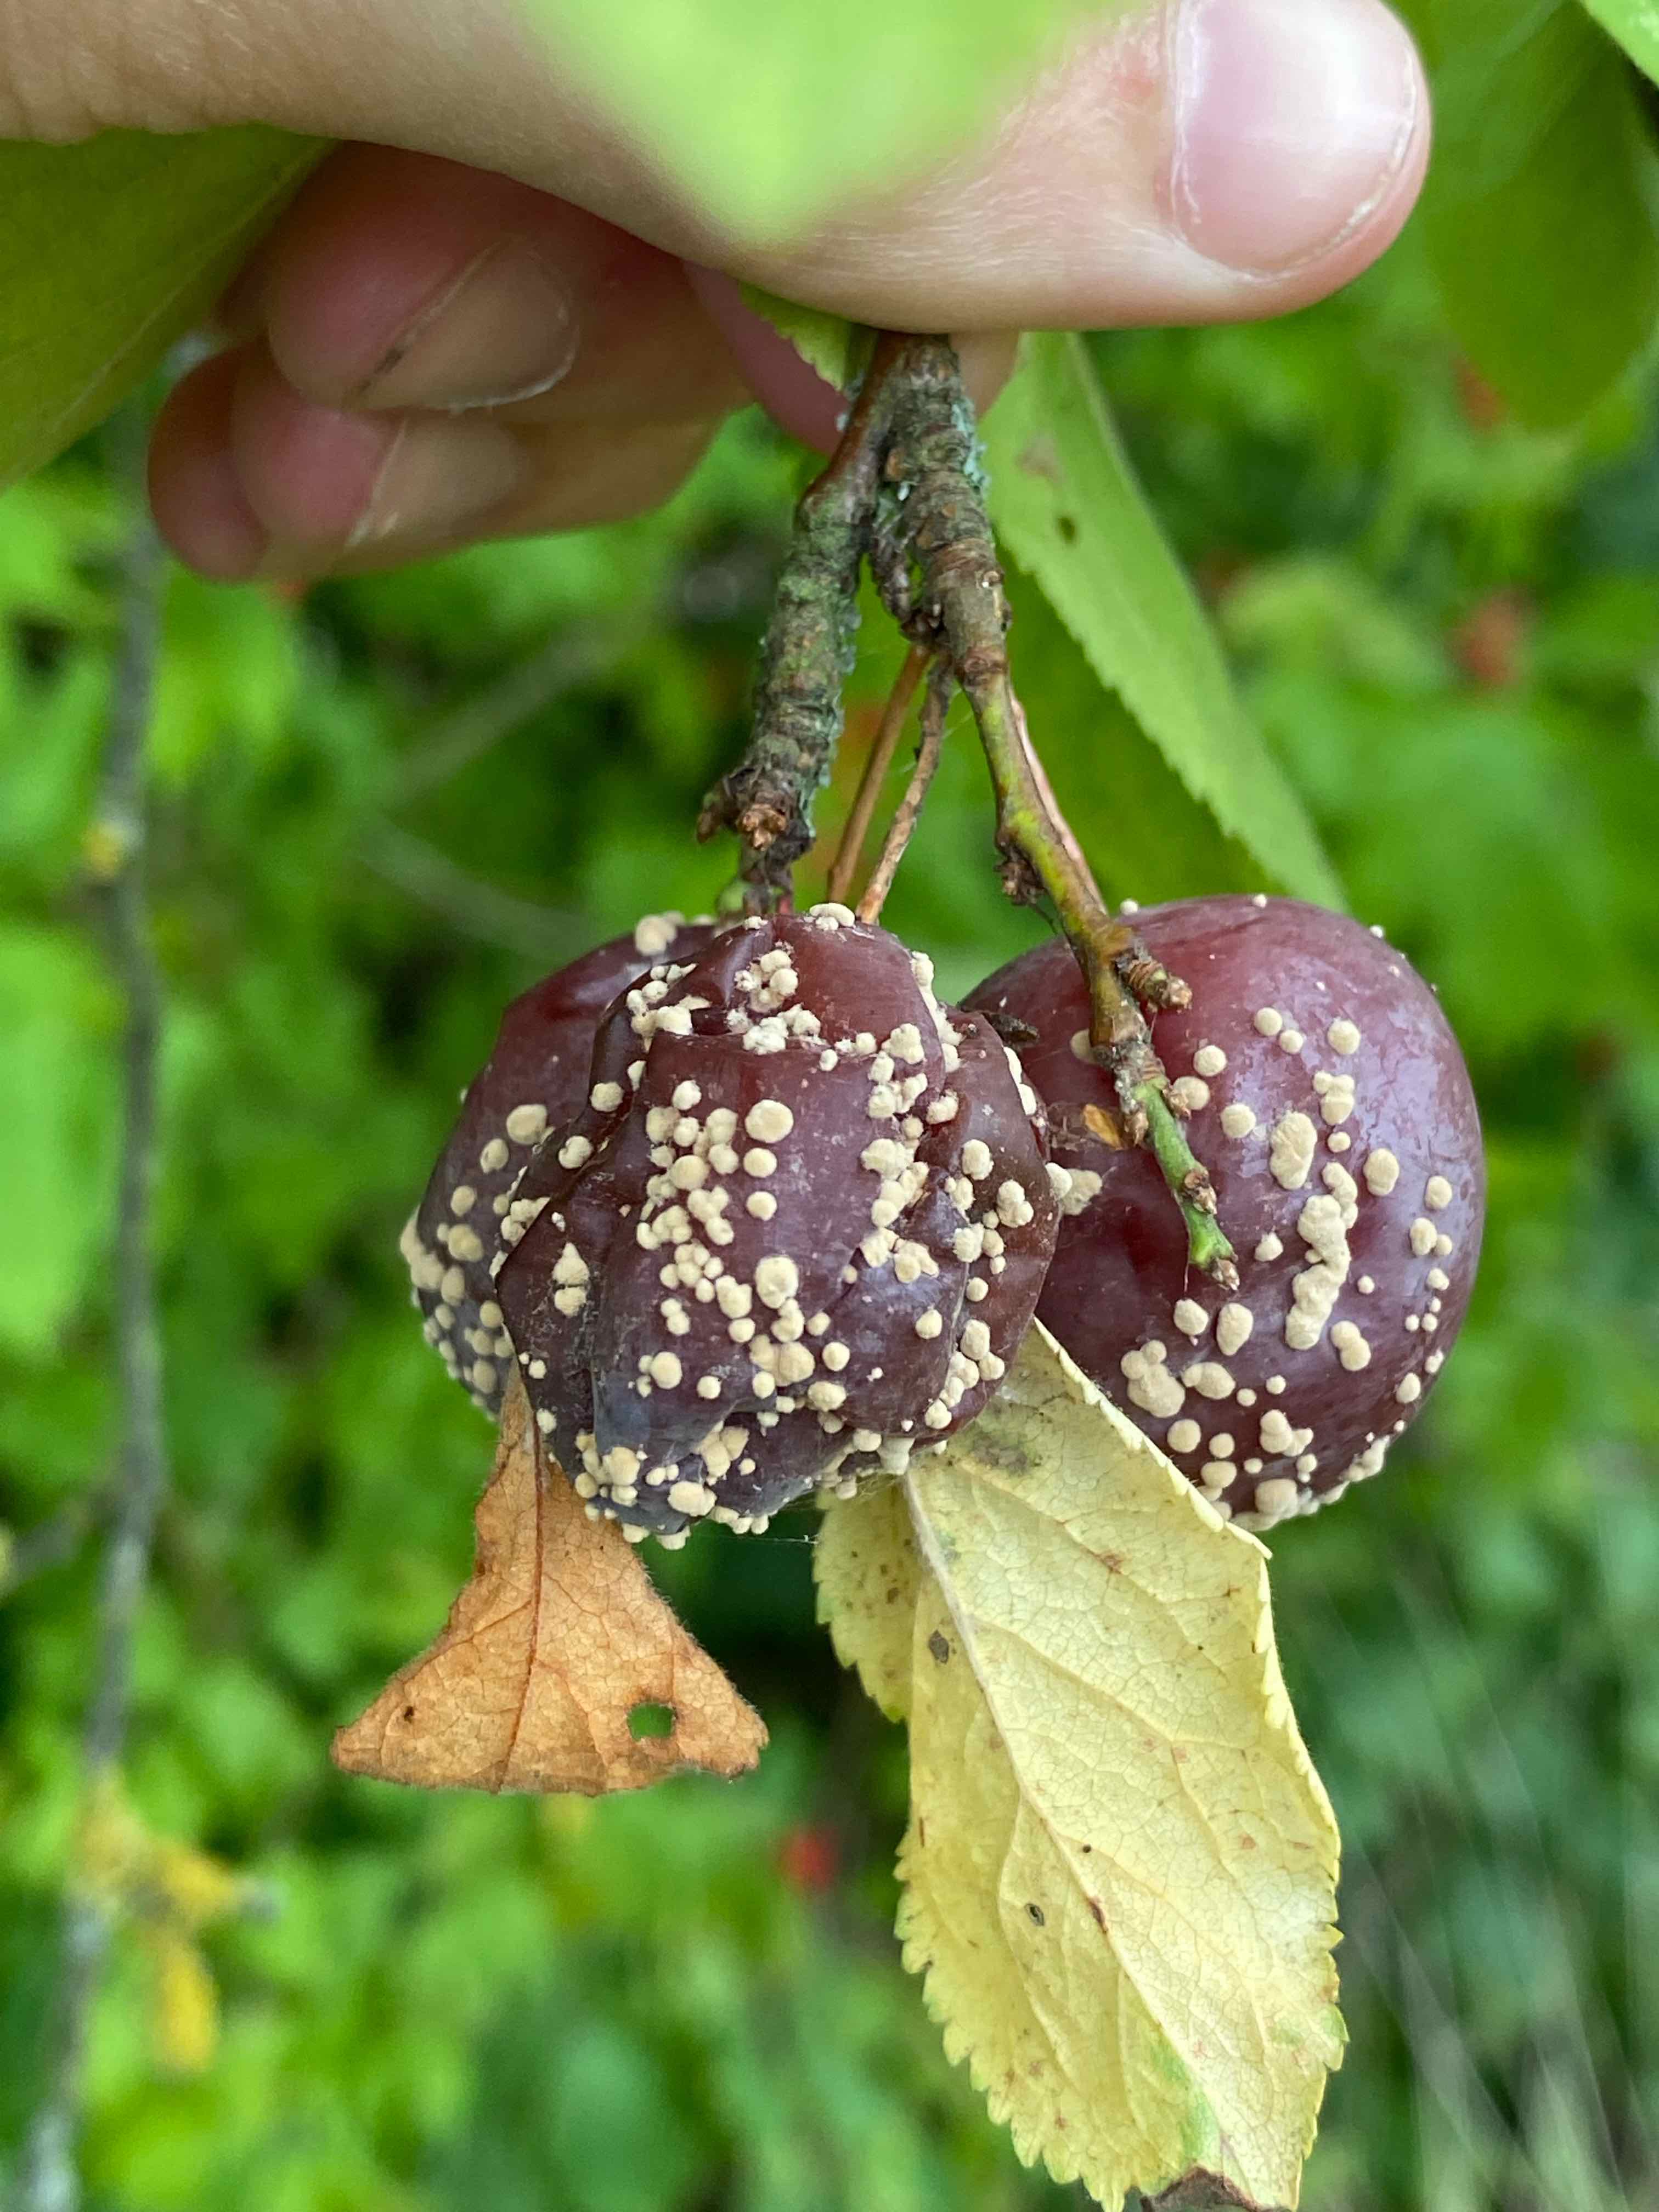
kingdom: Fungi
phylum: Ascomycota
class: Leotiomycetes
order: Helotiales
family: Sclerotiniaceae
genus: Monilinia
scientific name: Monilinia laxa
